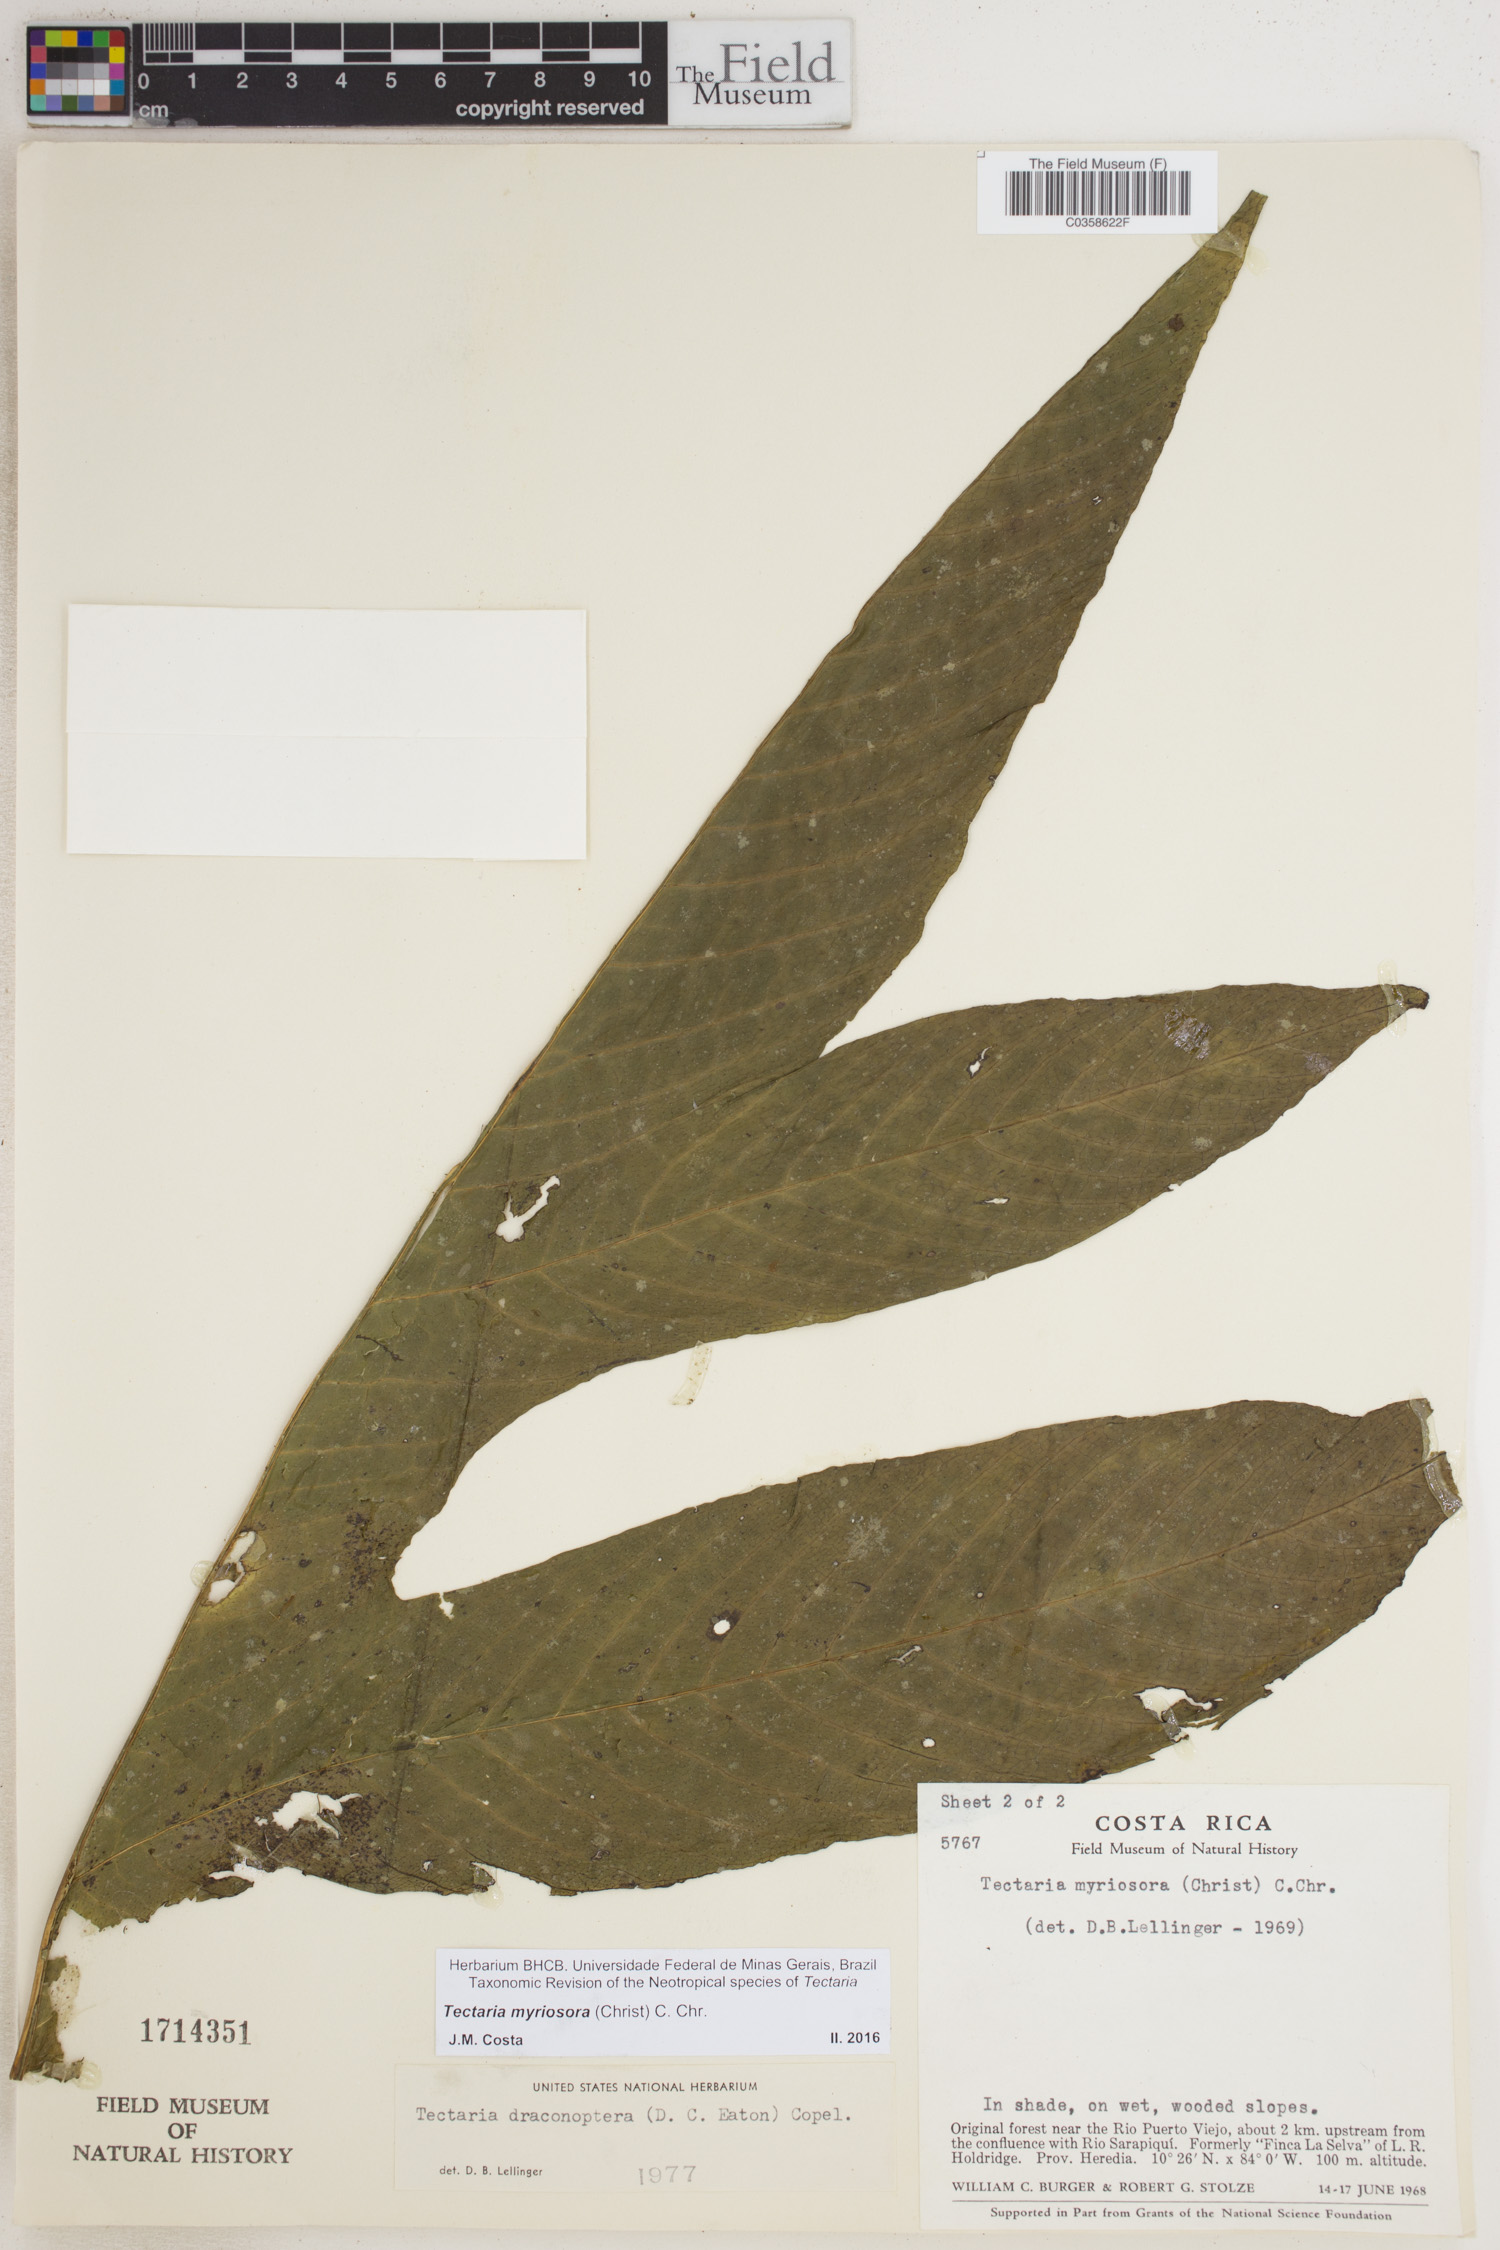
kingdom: Plantae
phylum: Tracheophyta
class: Polypodiopsida
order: Polypodiales
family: Tectariaceae
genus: Draconopteris
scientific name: Draconopteris draconoptera
